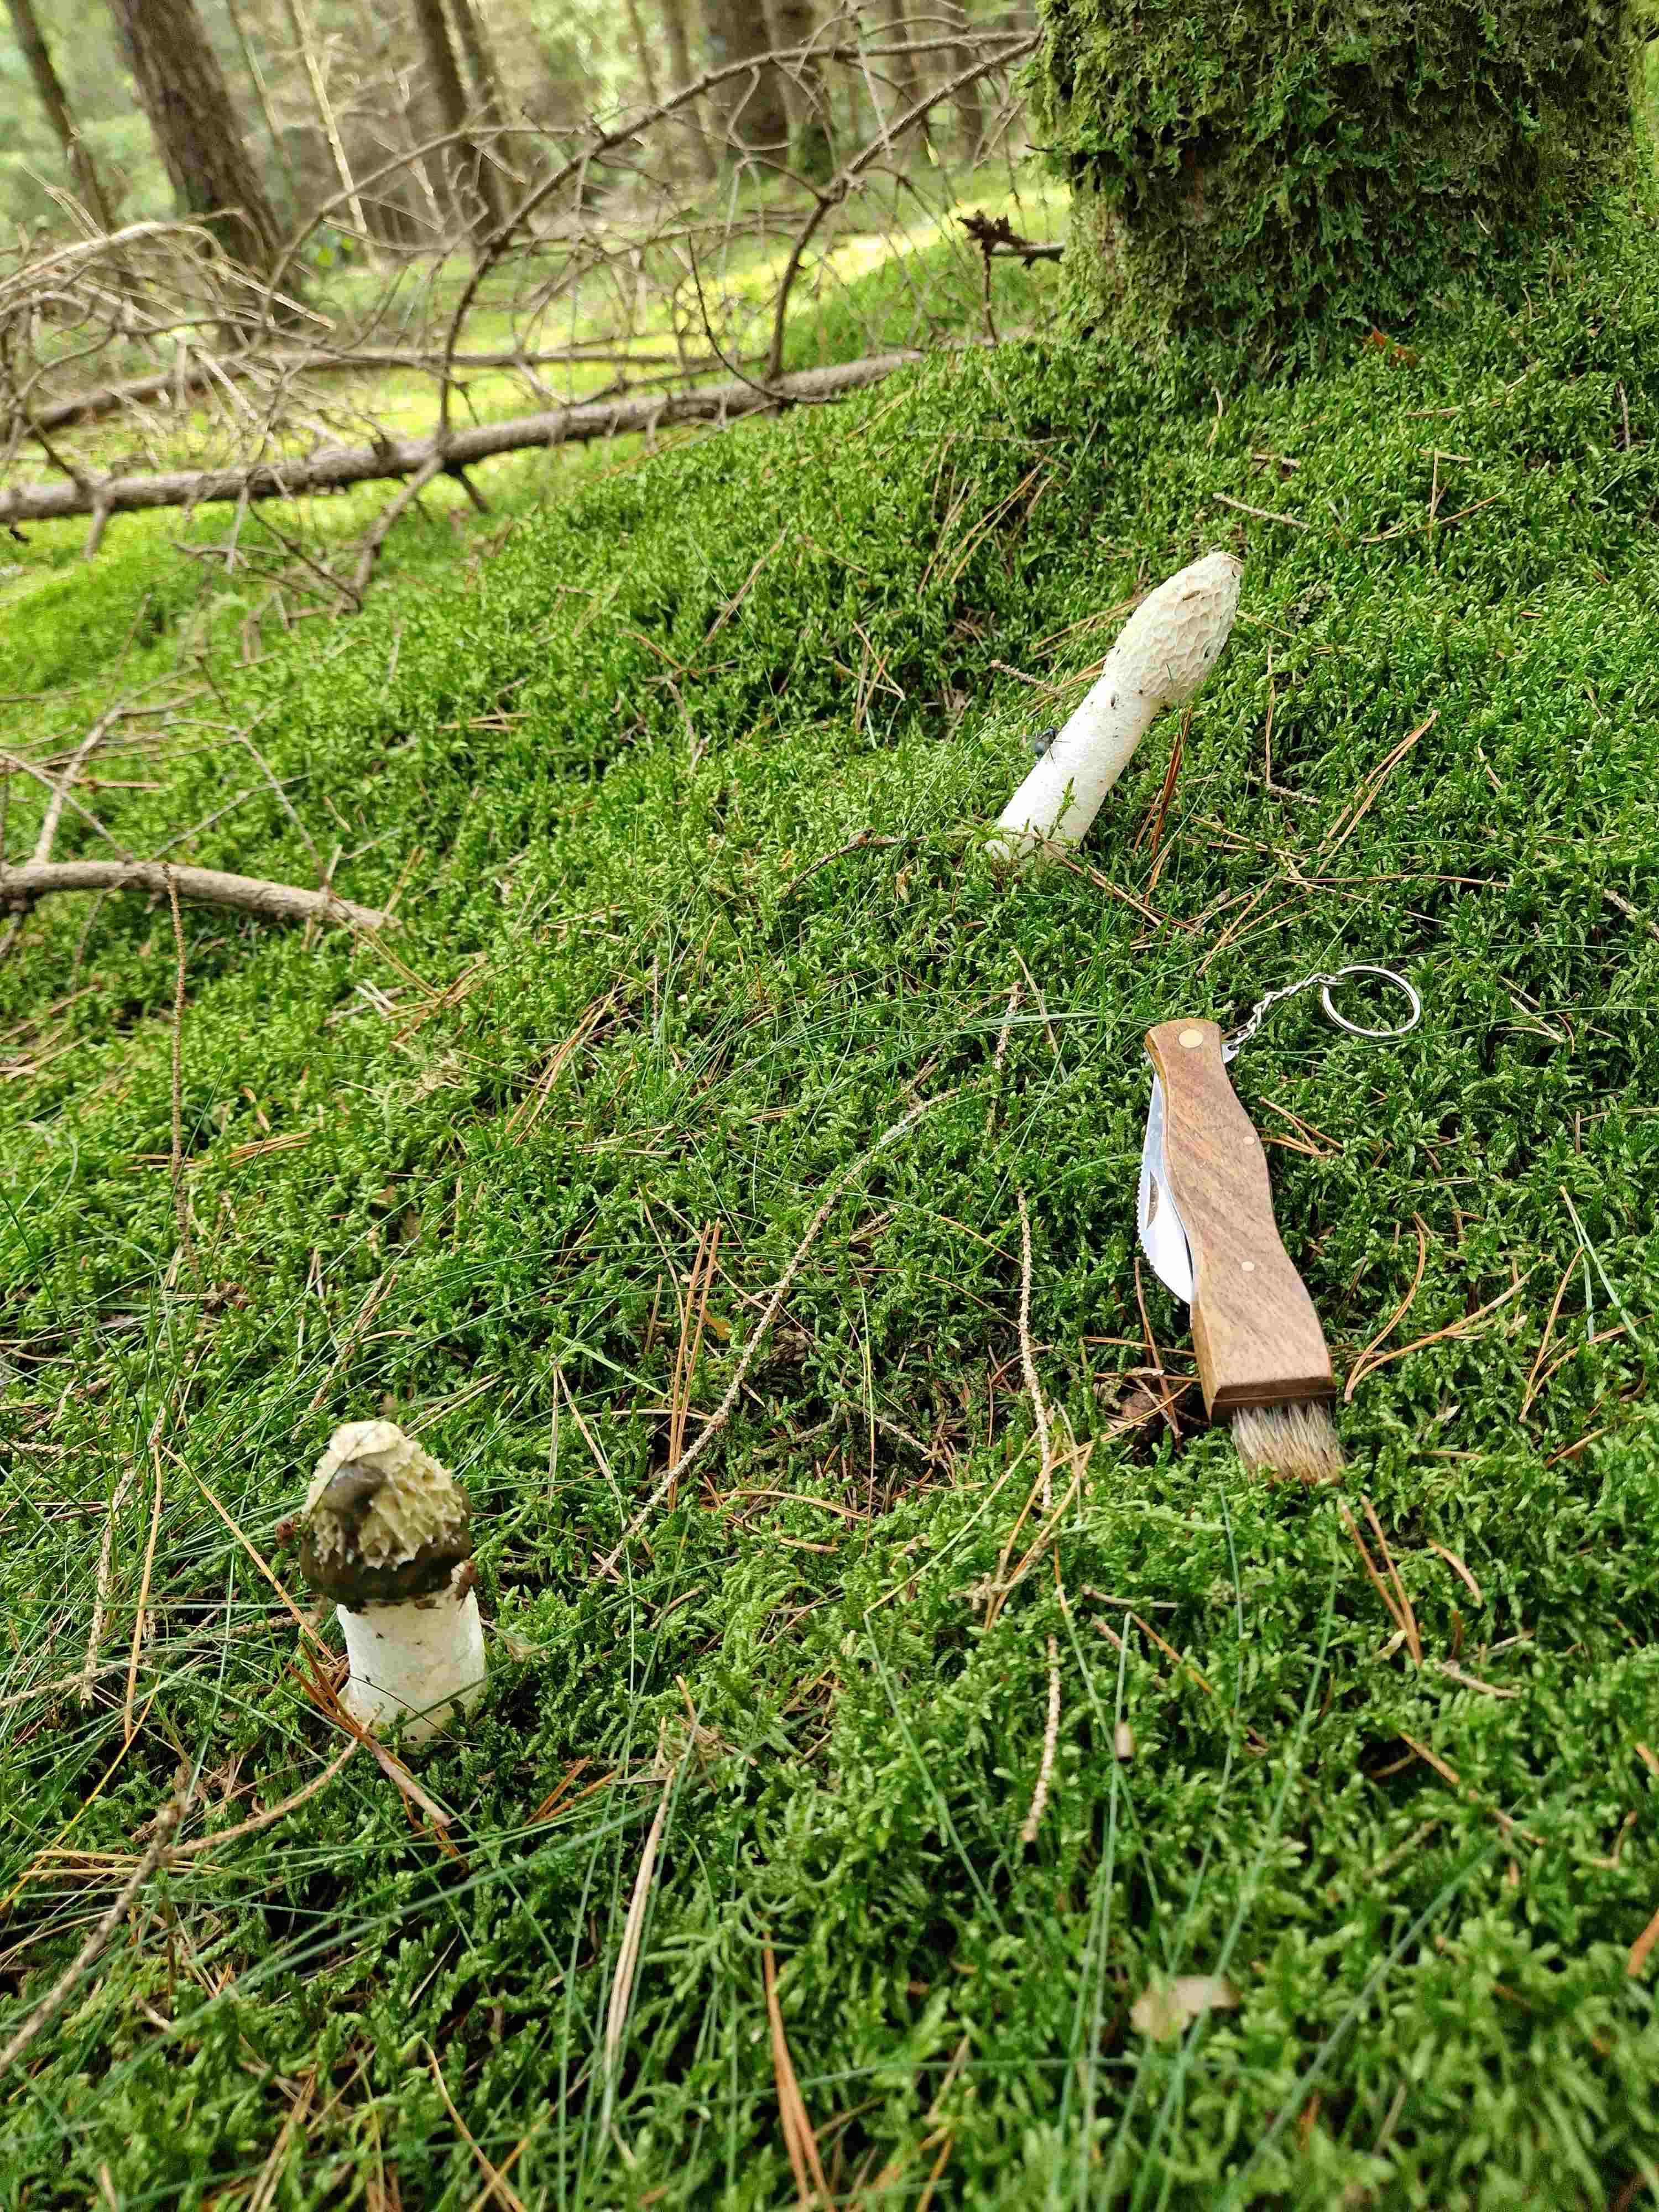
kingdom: Fungi
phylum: Basidiomycota
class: Agaricomycetes
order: Phallales
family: Phallaceae
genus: Phallus
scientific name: Phallus impudicus
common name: almindelig stinksvamp
